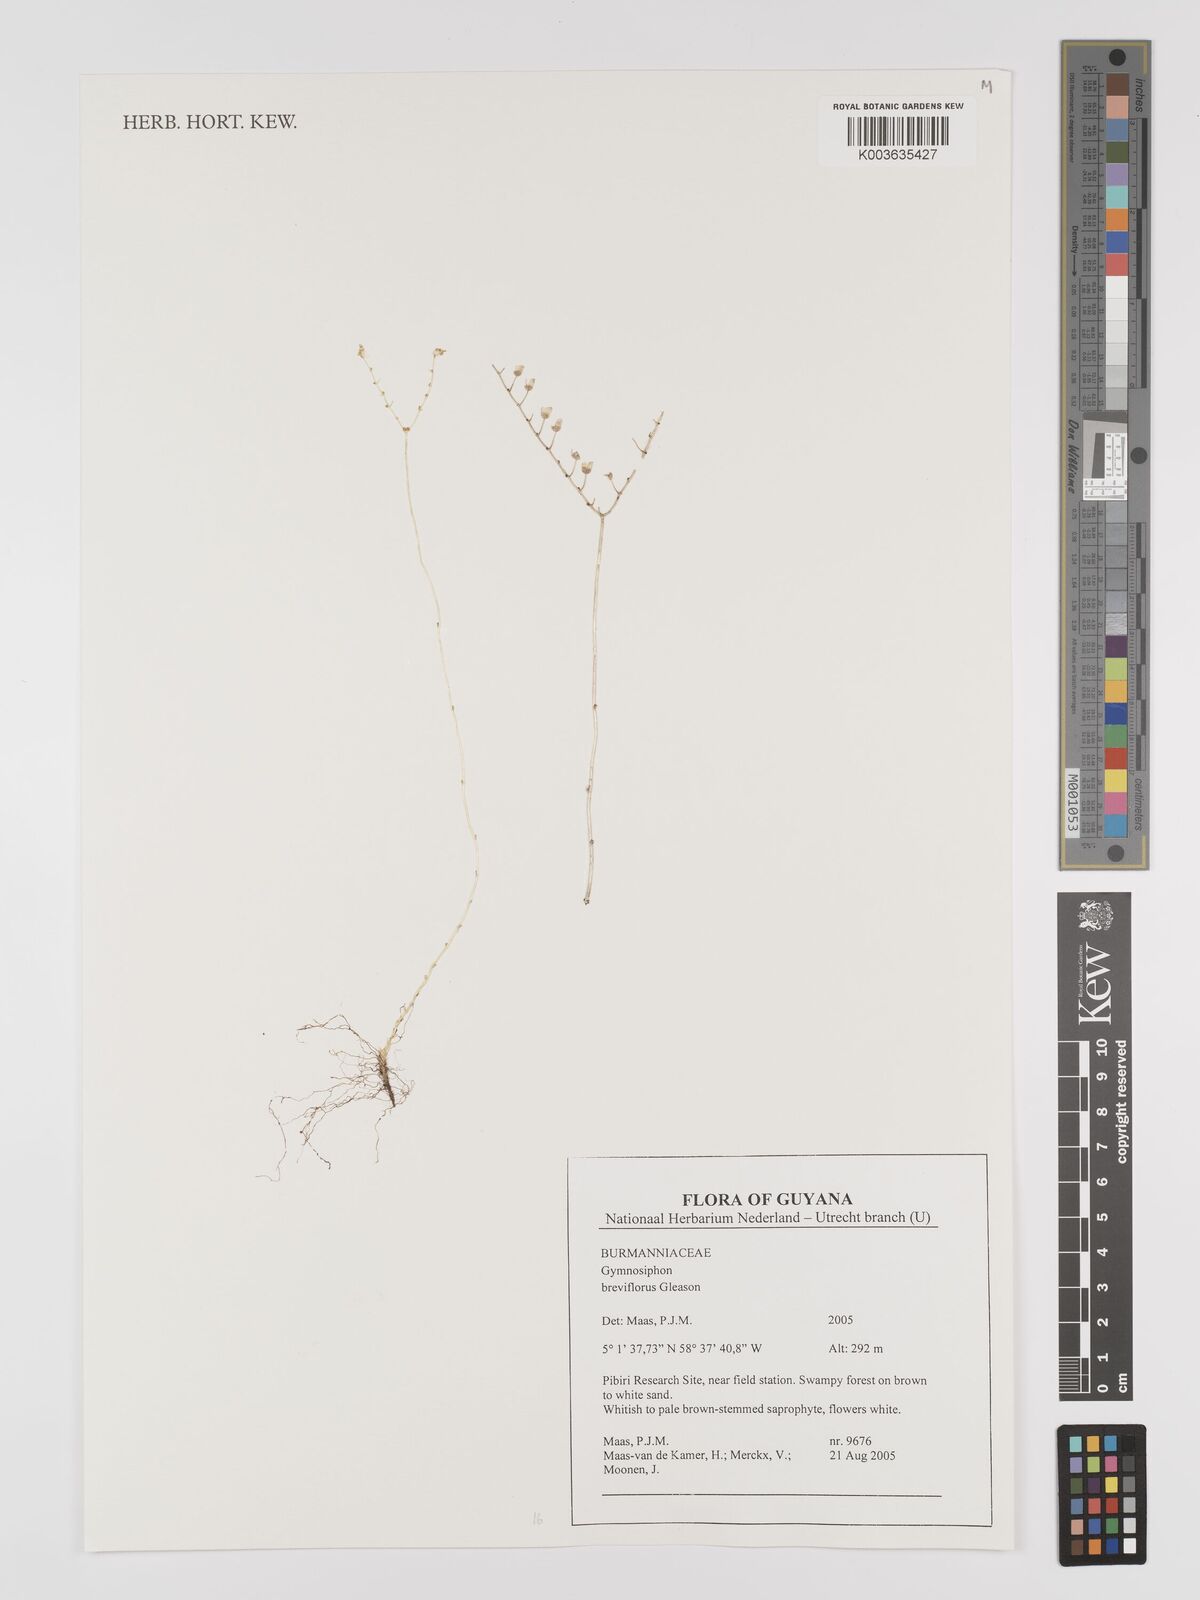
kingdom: Plantae
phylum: Tracheophyta
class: Liliopsida
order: Dioscoreales
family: Burmanniaceae
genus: Gymnosiphon
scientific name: Gymnosiphon breviflorus
